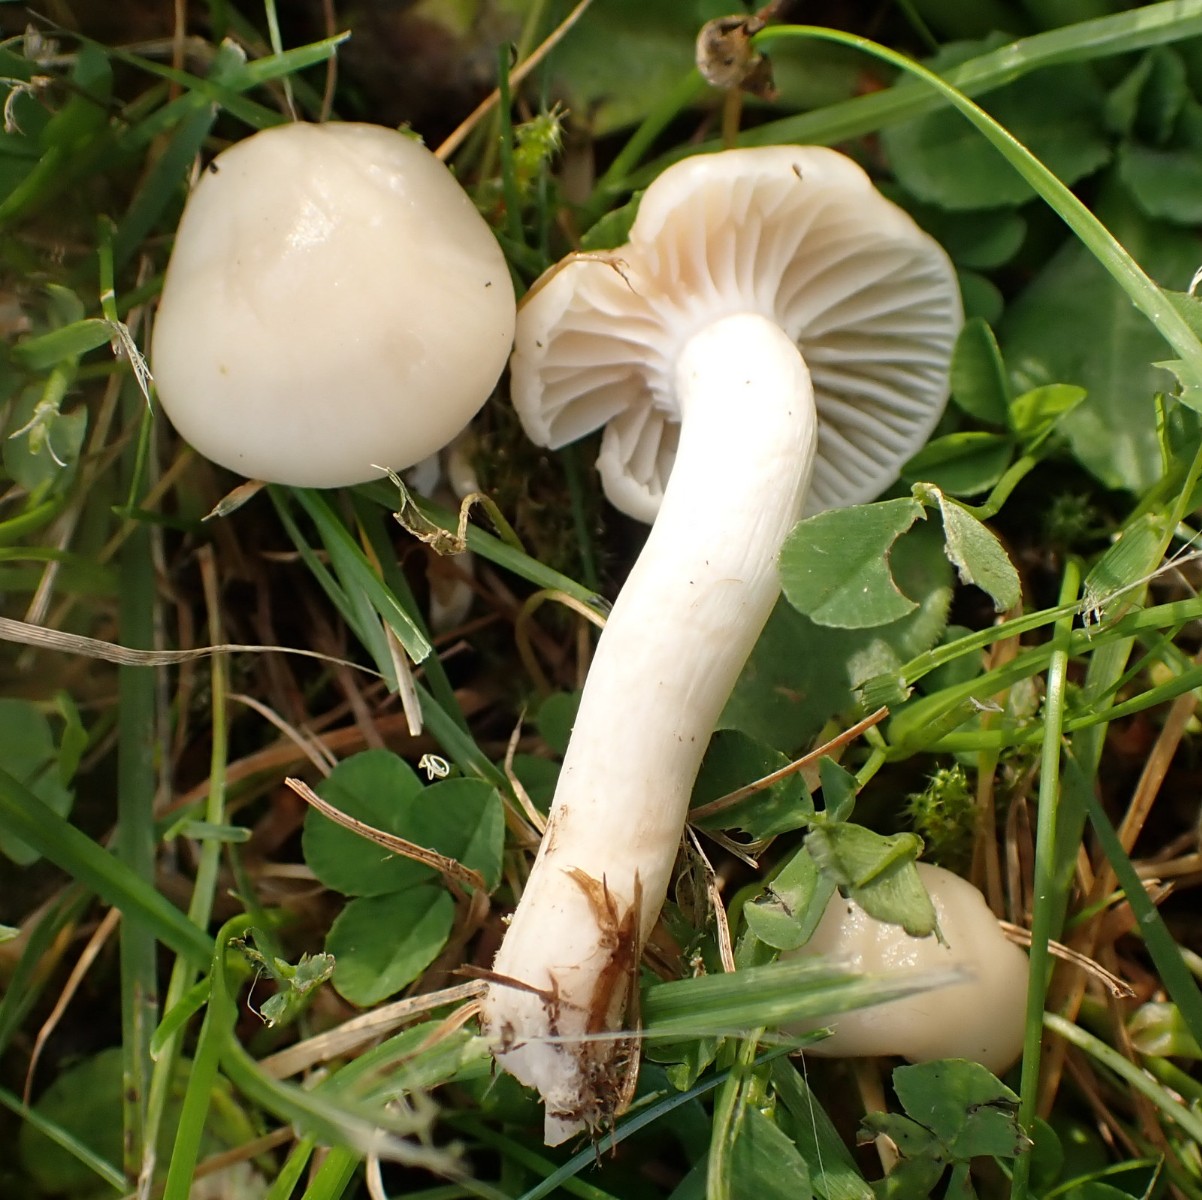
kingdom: Fungi
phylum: Basidiomycota
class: Agaricomycetes
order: Agaricales
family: Hygrophoraceae
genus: Cuphophyllus
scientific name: Cuphophyllus virgineus
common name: snehvid vokshat
